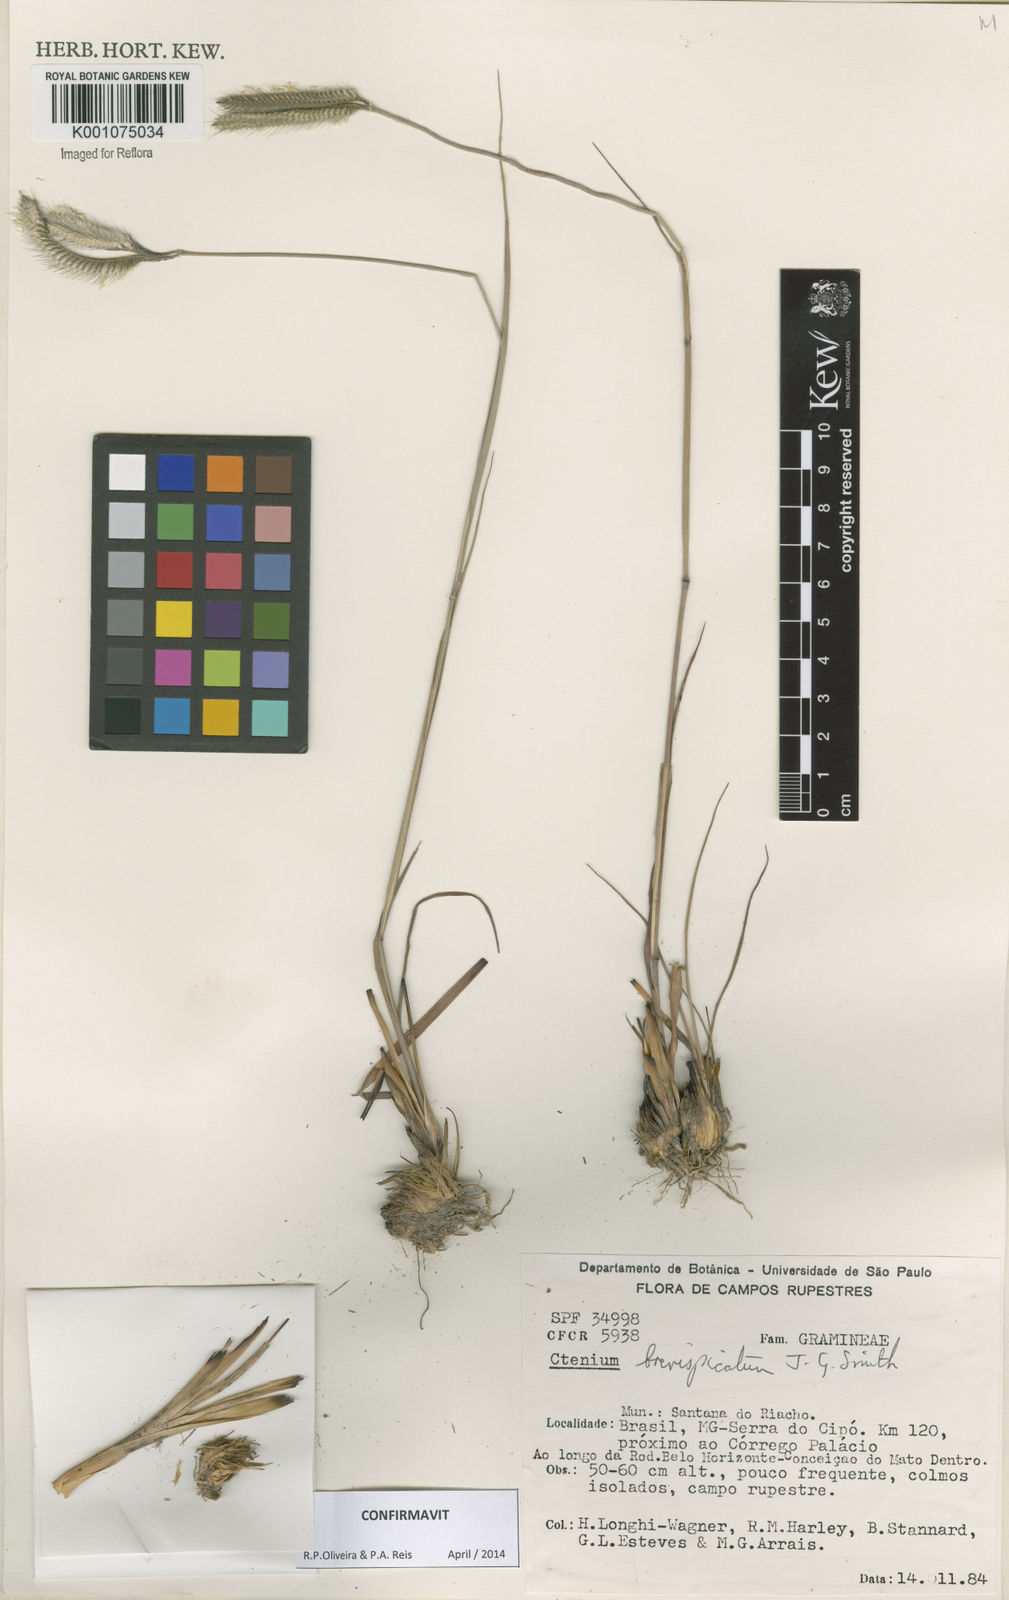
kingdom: Plantae
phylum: Tracheophyta
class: Liliopsida
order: Poales
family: Poaceae
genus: Ctenium
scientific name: Ctenium brevispicatum
